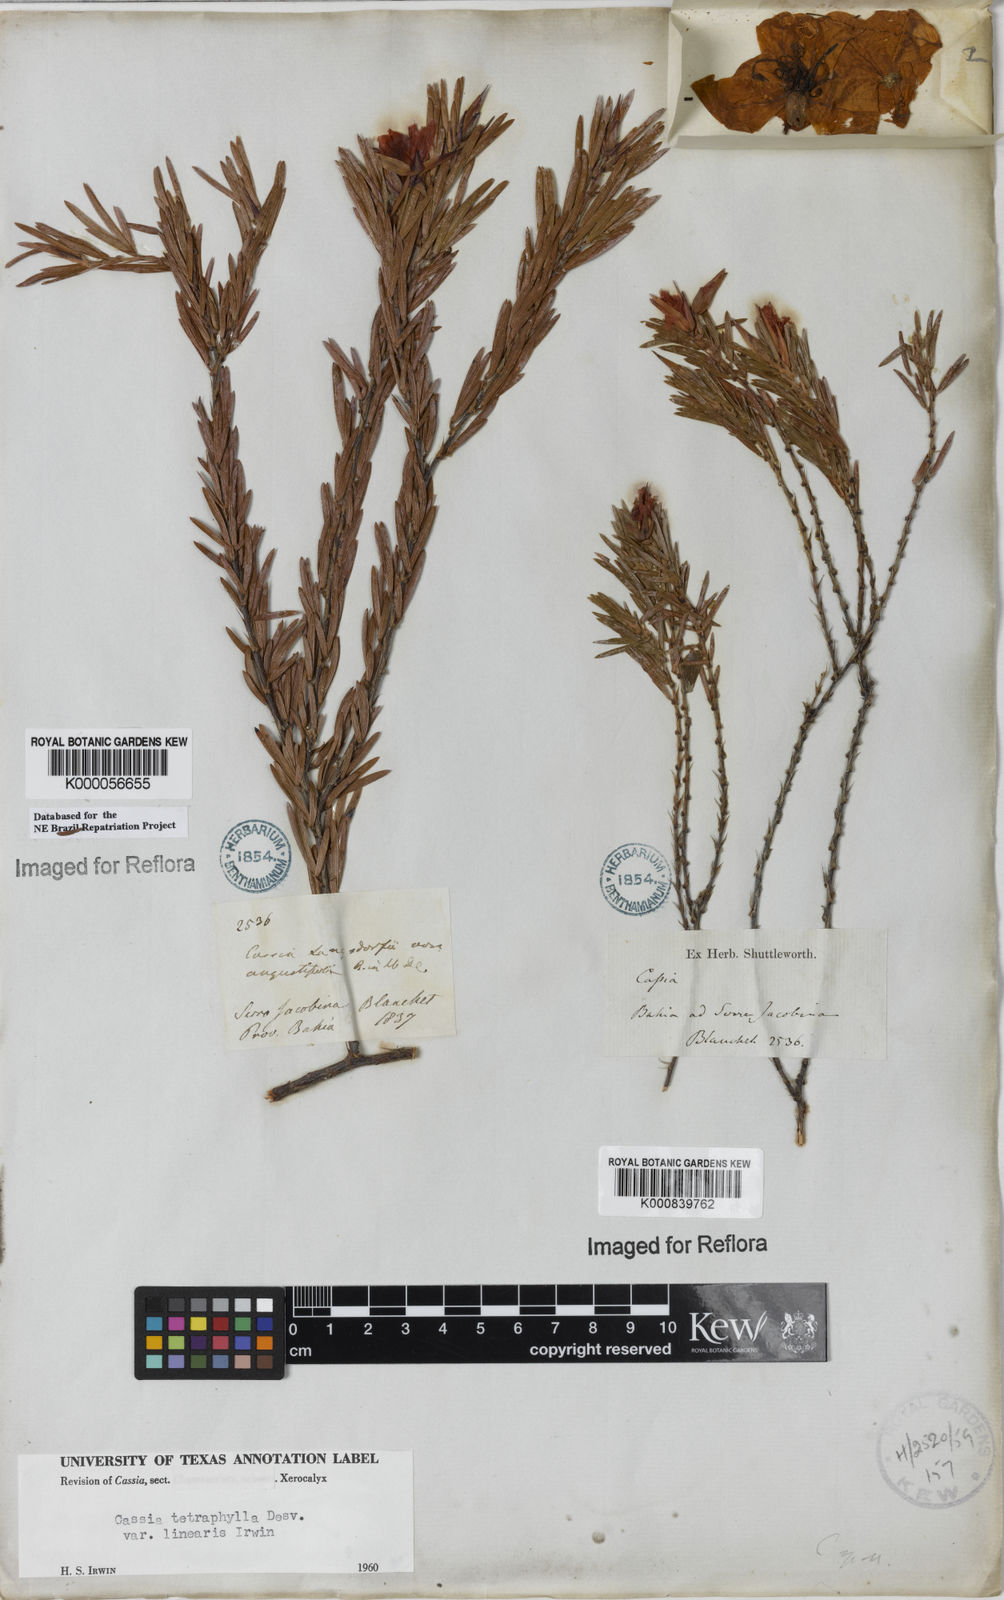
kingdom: Plantae
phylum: Tracheophyta
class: Magnoliopsida
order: Fabales
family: Fabaceae
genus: Chamaecrista
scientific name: Chamaecrista desvauxii
